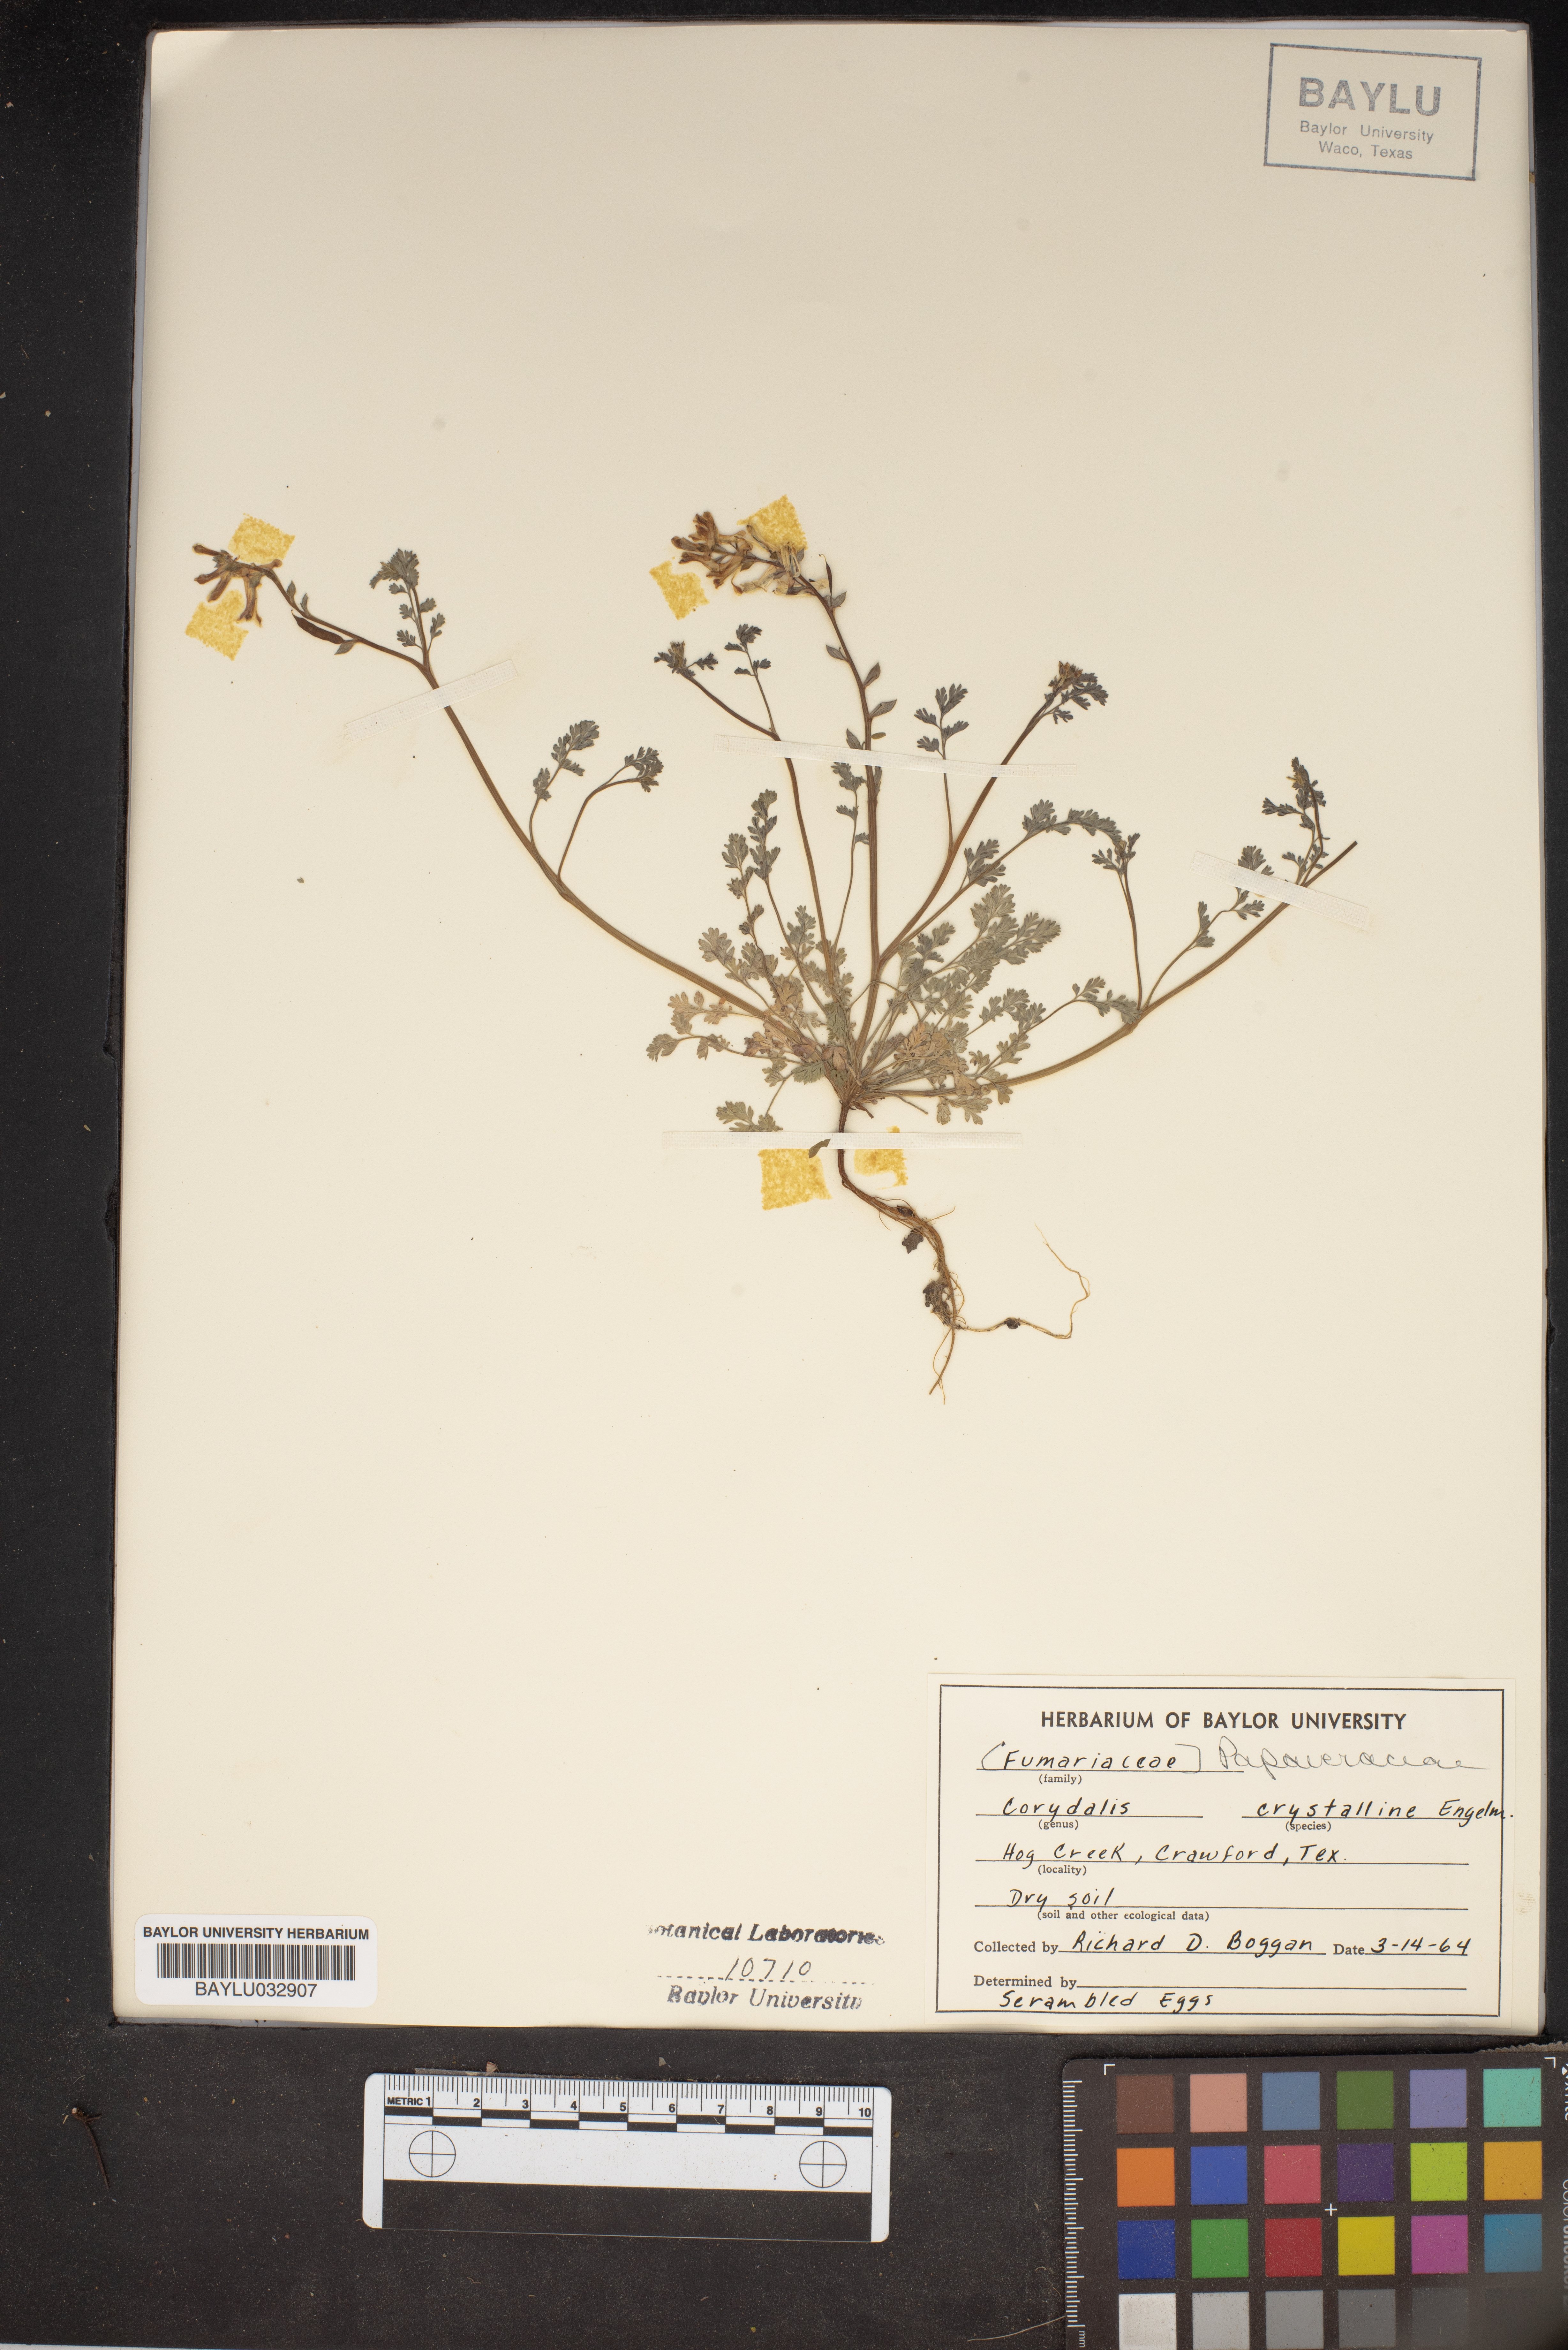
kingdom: Plantae
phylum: Tracheophyta
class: Magnoliopsida
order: Ranunculales
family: Papaveraceae
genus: Corydalis
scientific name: Corydalis crystallina
